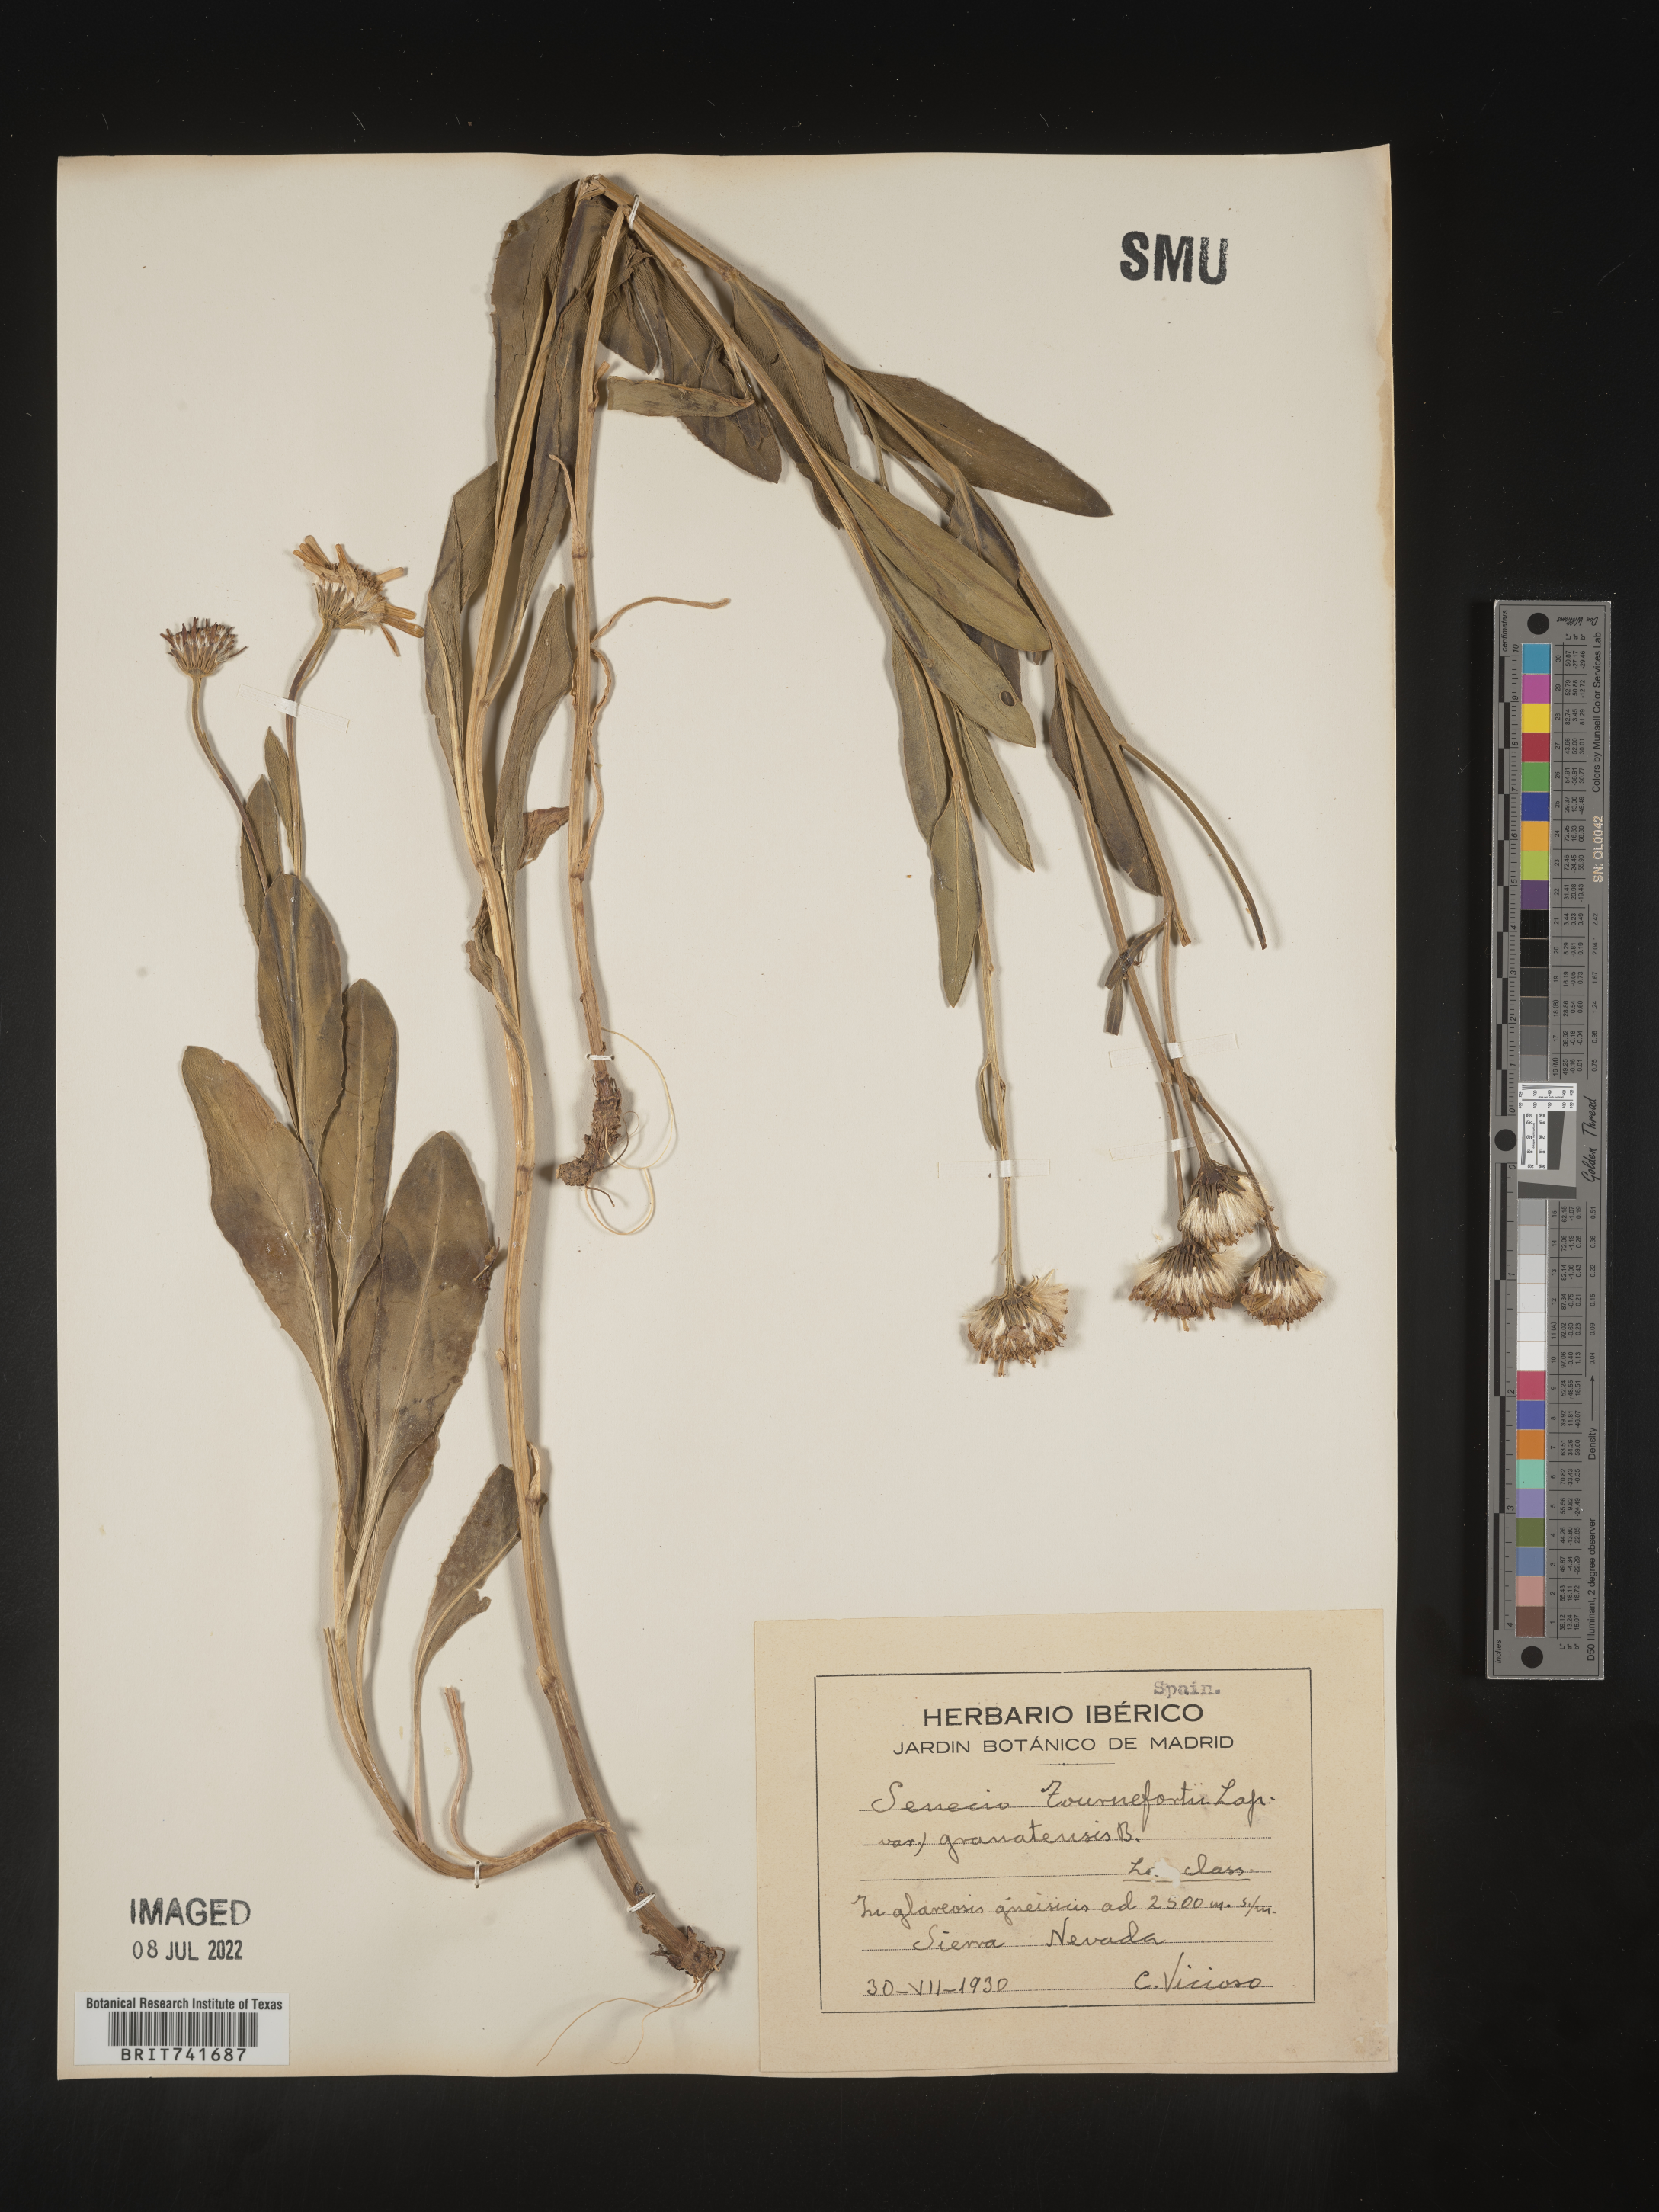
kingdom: Plantae
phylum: Tracheophyta
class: Magnoliopsida
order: Asterales
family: Asteraceae
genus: Senecio
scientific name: Senecio
